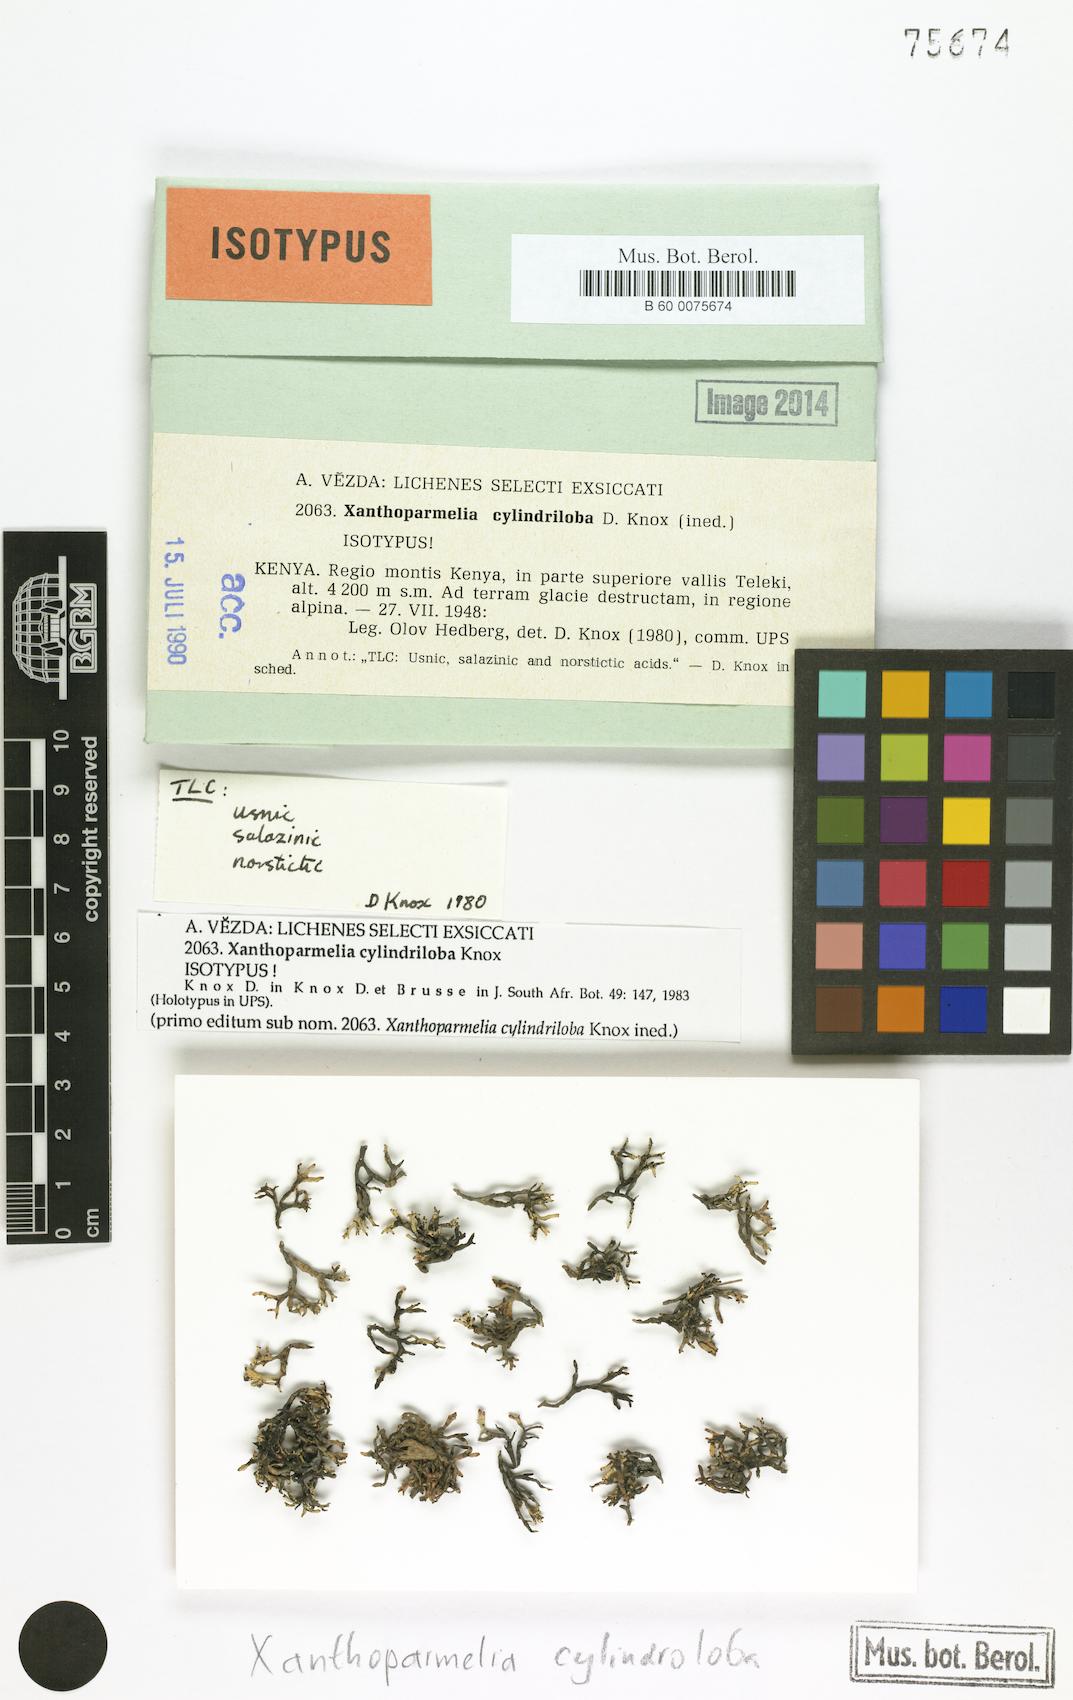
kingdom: Fungi
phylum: Ascomycota
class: Lecanoromycetes
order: Lecanorales
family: Parmeliaceae
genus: Xanthoparmelia
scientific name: Xanthoparmelia
